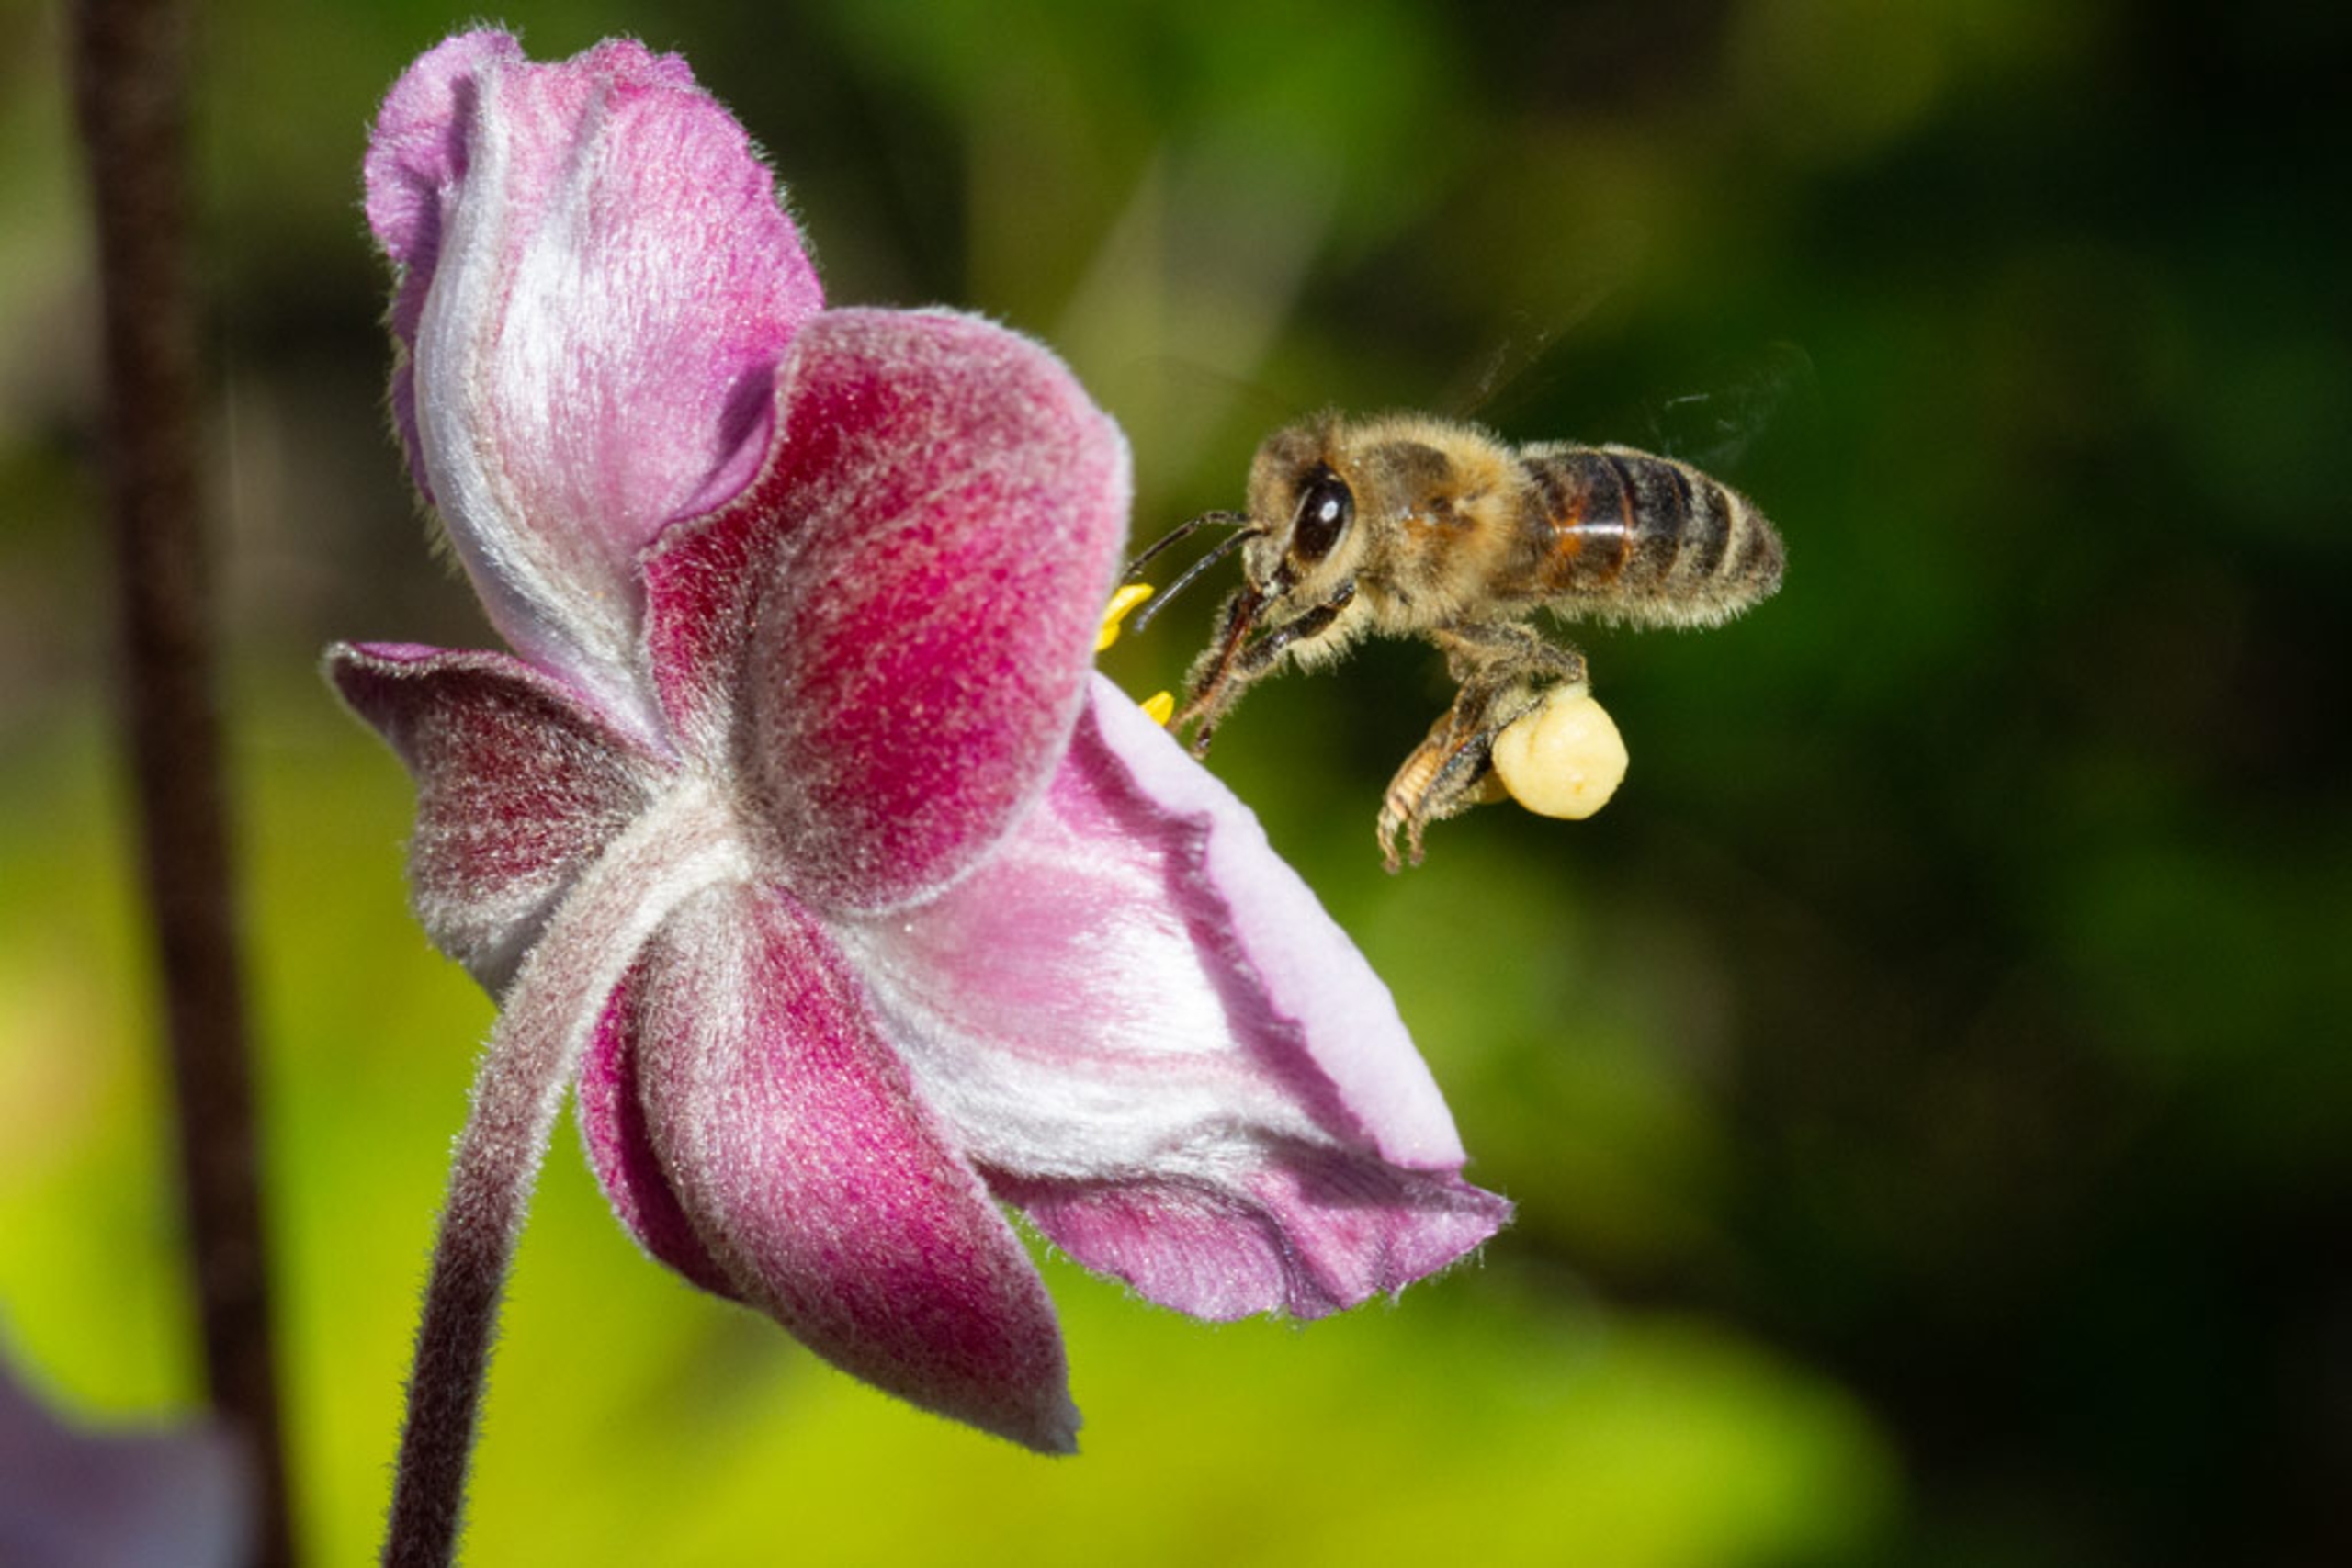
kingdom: Animalia
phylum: Arthropoda
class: Insecta
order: Hymenoptera
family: Apidae
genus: Apis
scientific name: Apis mellifera
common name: Honningbi
